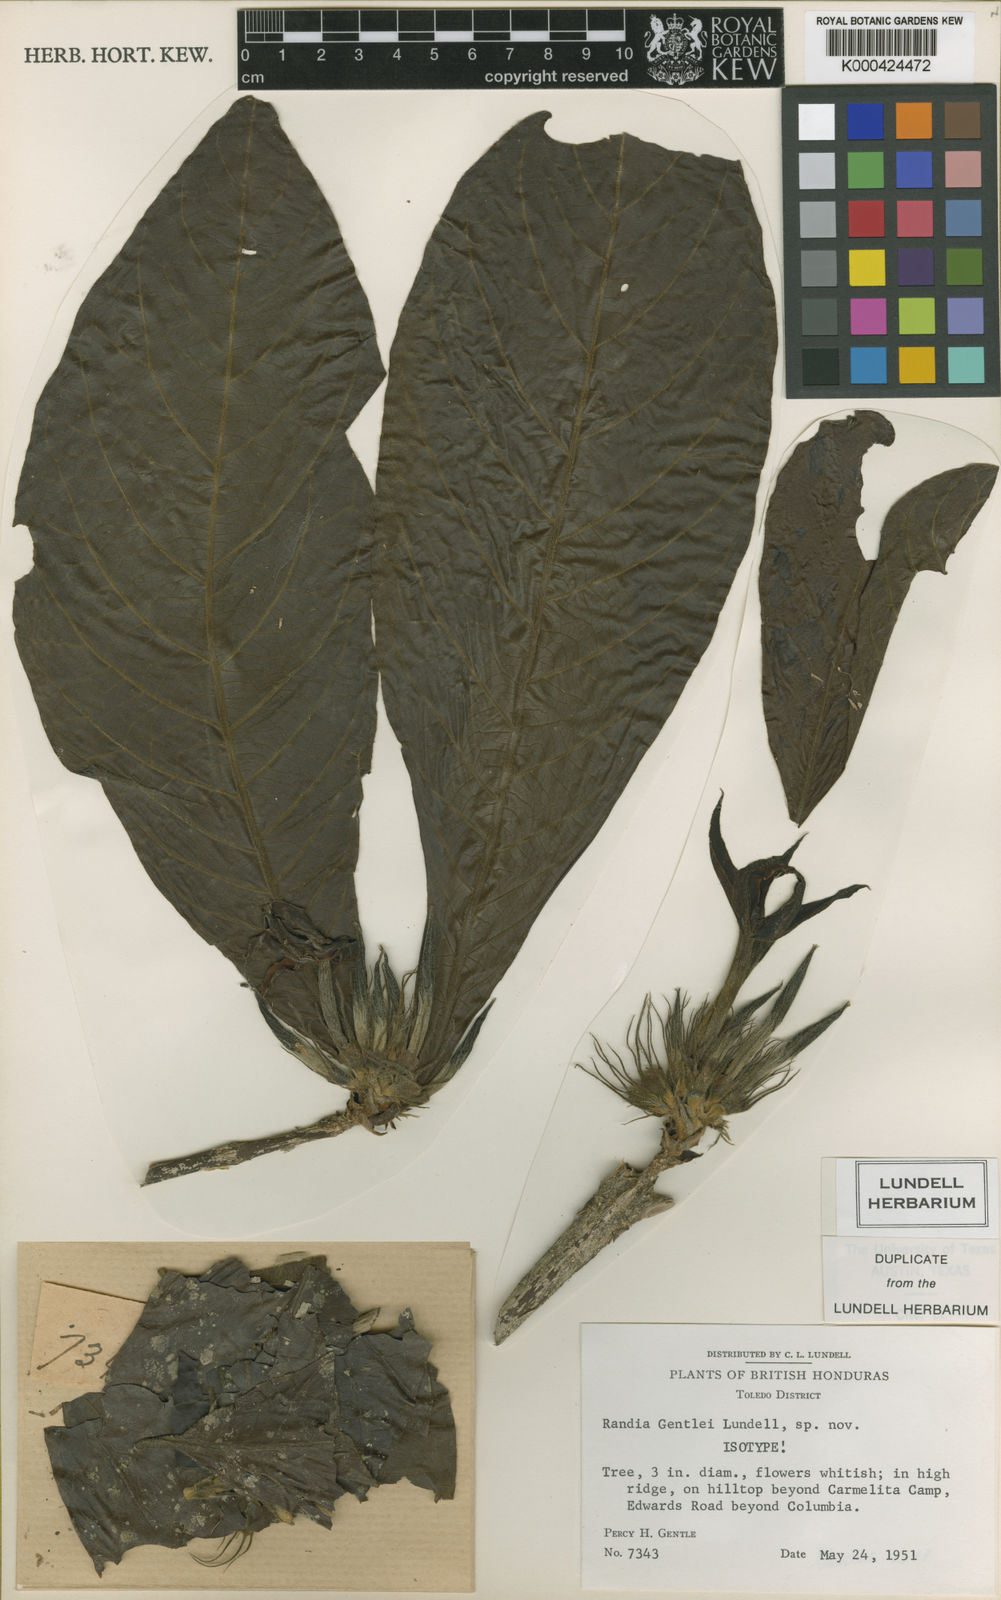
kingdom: Plantae
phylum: Tracheophyta
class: Magnoliopsida
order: Gentianales
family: Rubiaceae
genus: Randia
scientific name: Randia genipifolia
